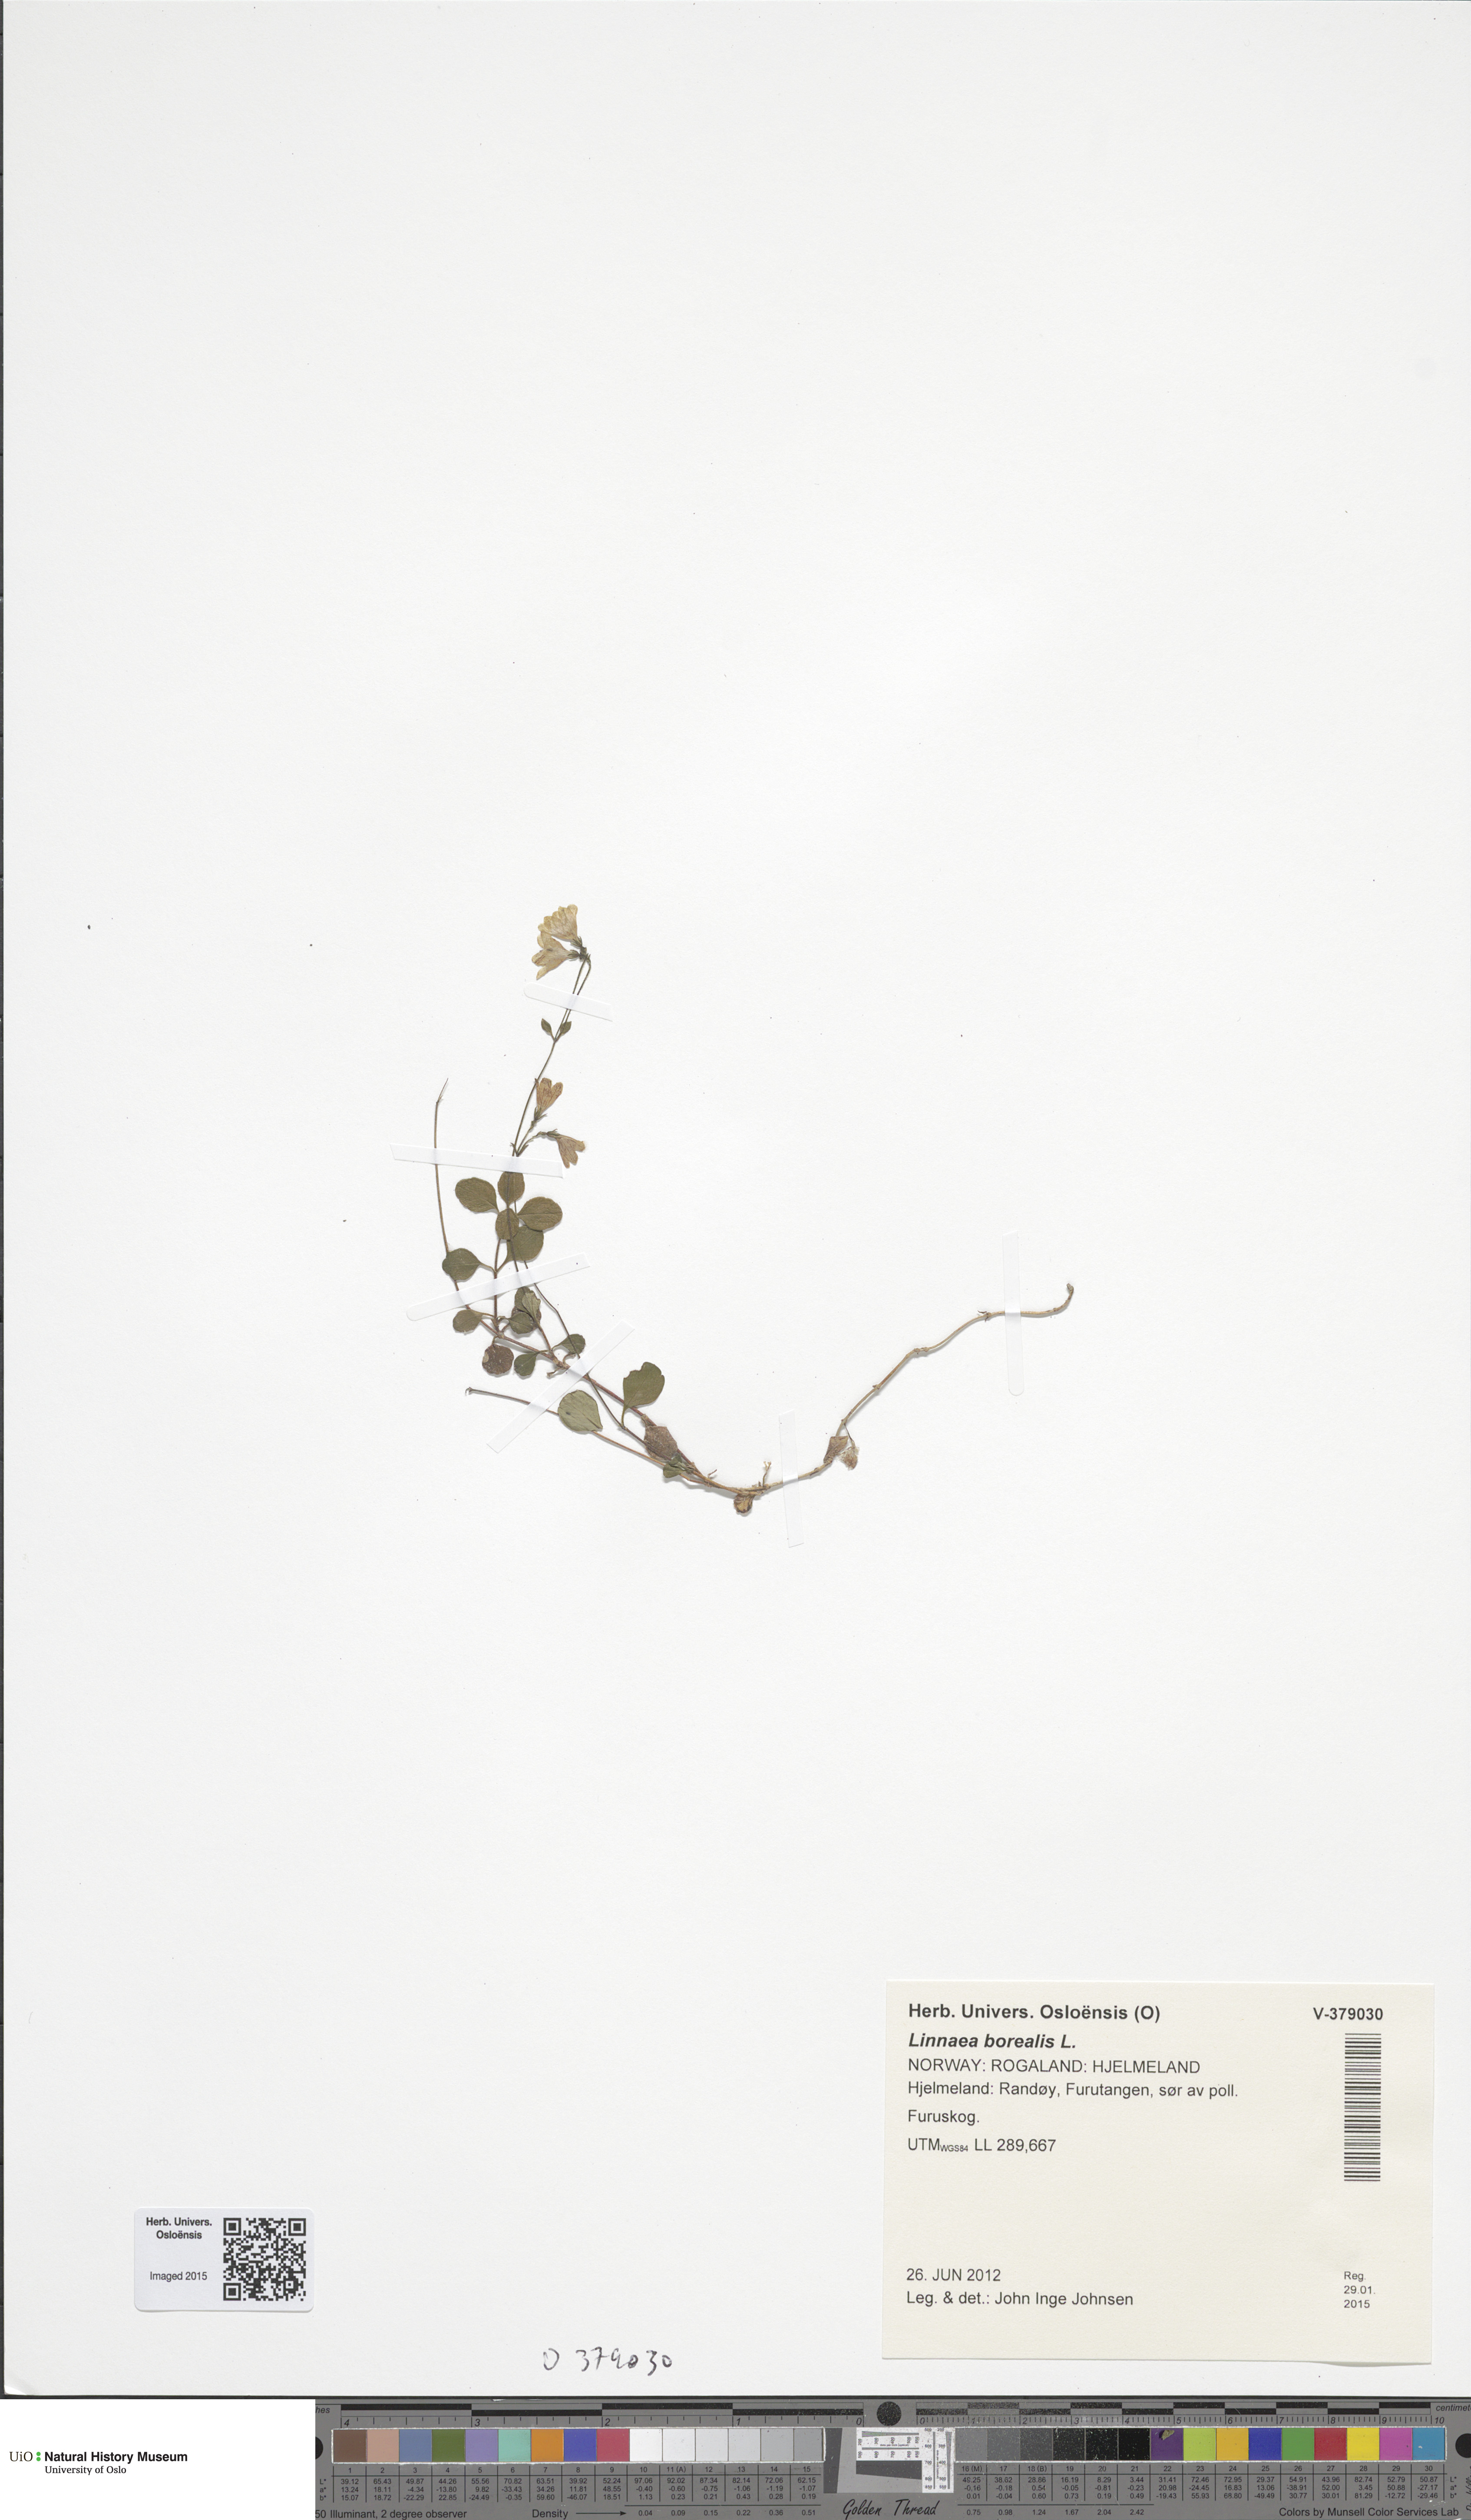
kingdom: Plantae
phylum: Tracheophyta
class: Magnoliopsida
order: Dipsacales
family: Caprifoliaceae
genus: Linnaea
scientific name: Linnaea borealis
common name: Twinflower
